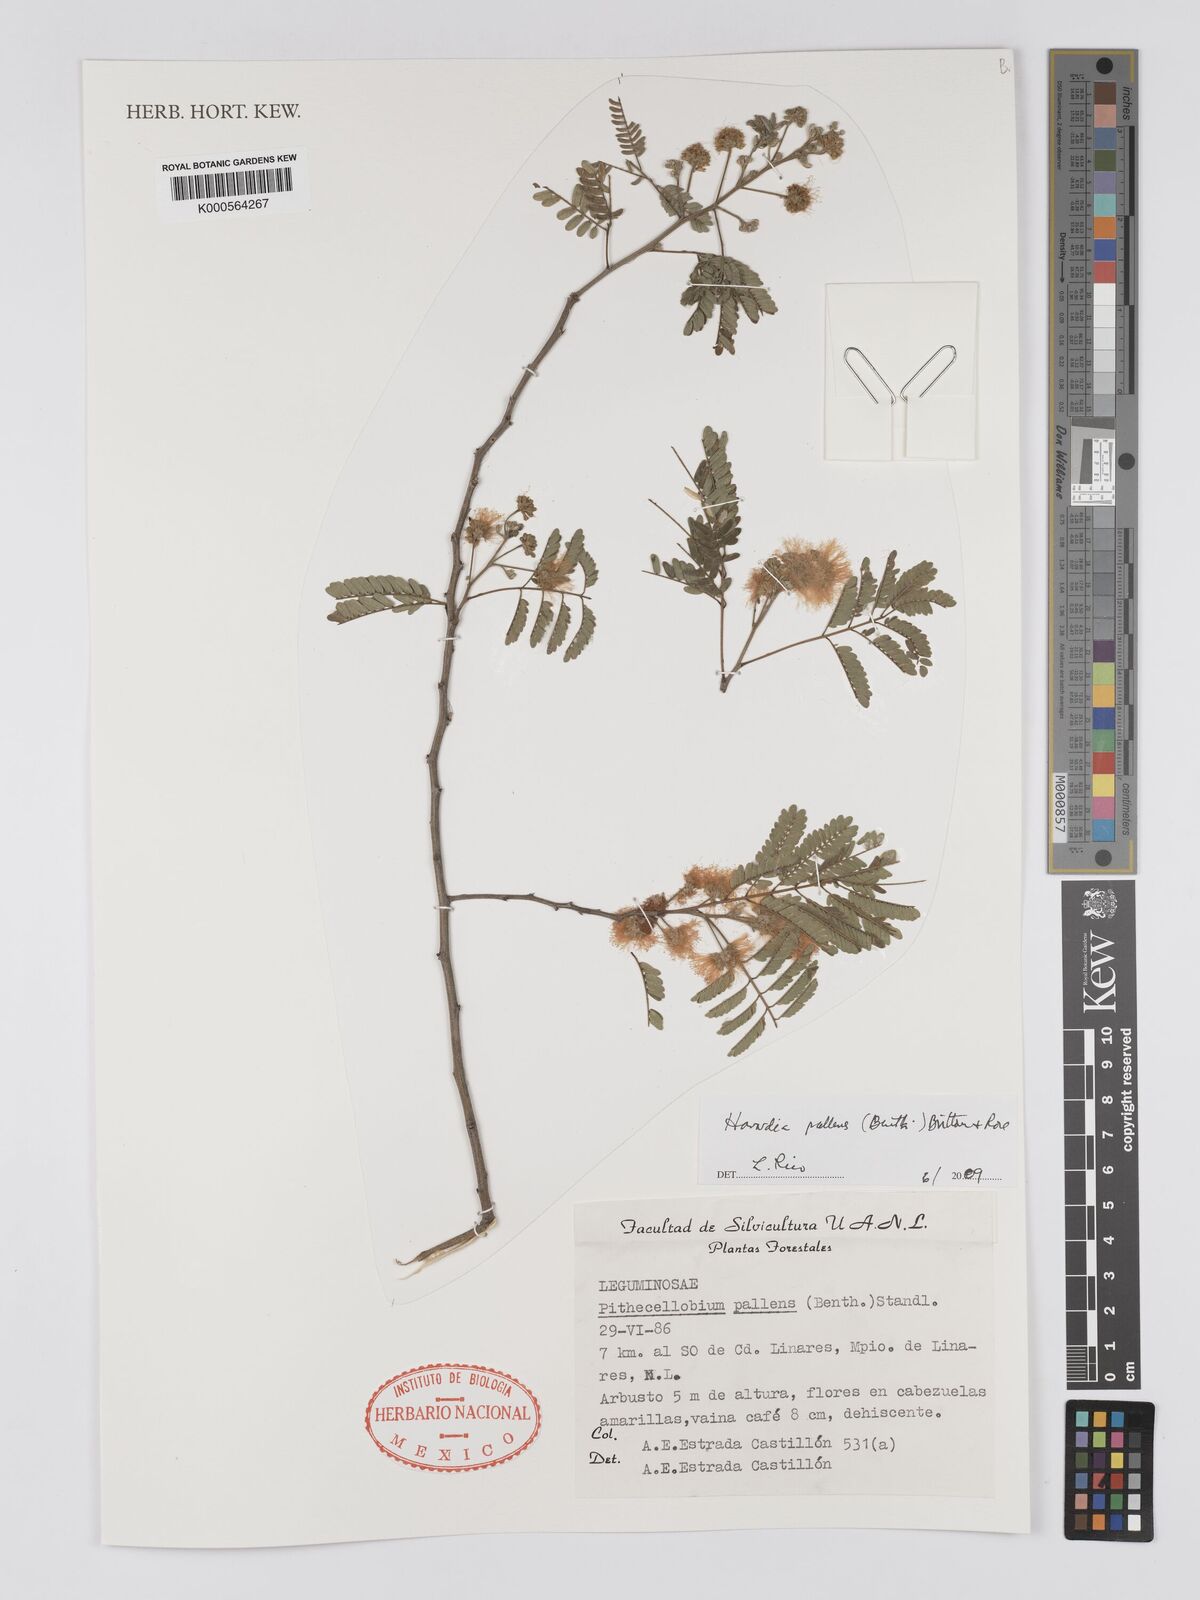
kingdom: Plantae
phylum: Tracheophyta
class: Magnoliopsida
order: Fabales
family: Fabaceae
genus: Havardia
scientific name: Havardia pallens
